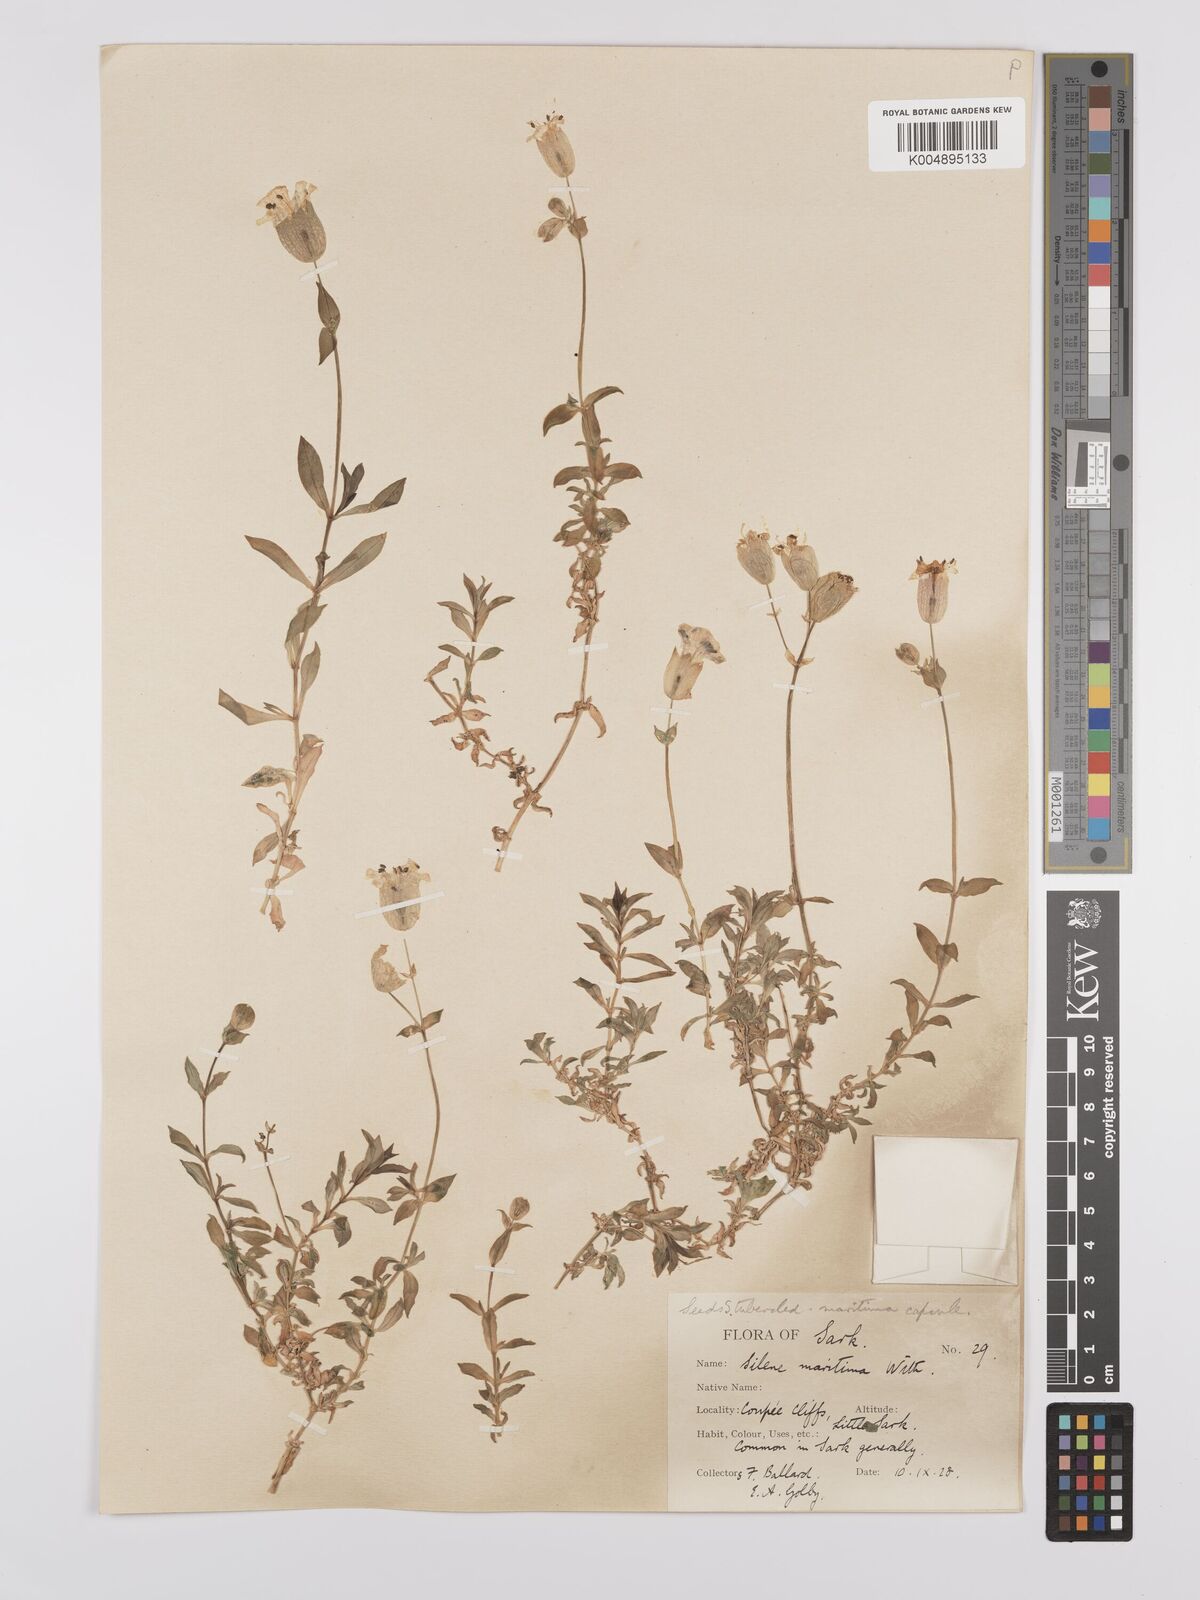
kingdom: Plantae
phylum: Tracheophyta
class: Magnoliopsida
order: Caryophyllales
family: Caryophyllaceae
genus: Silene
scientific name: Silene uniflora
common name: Sea campion
